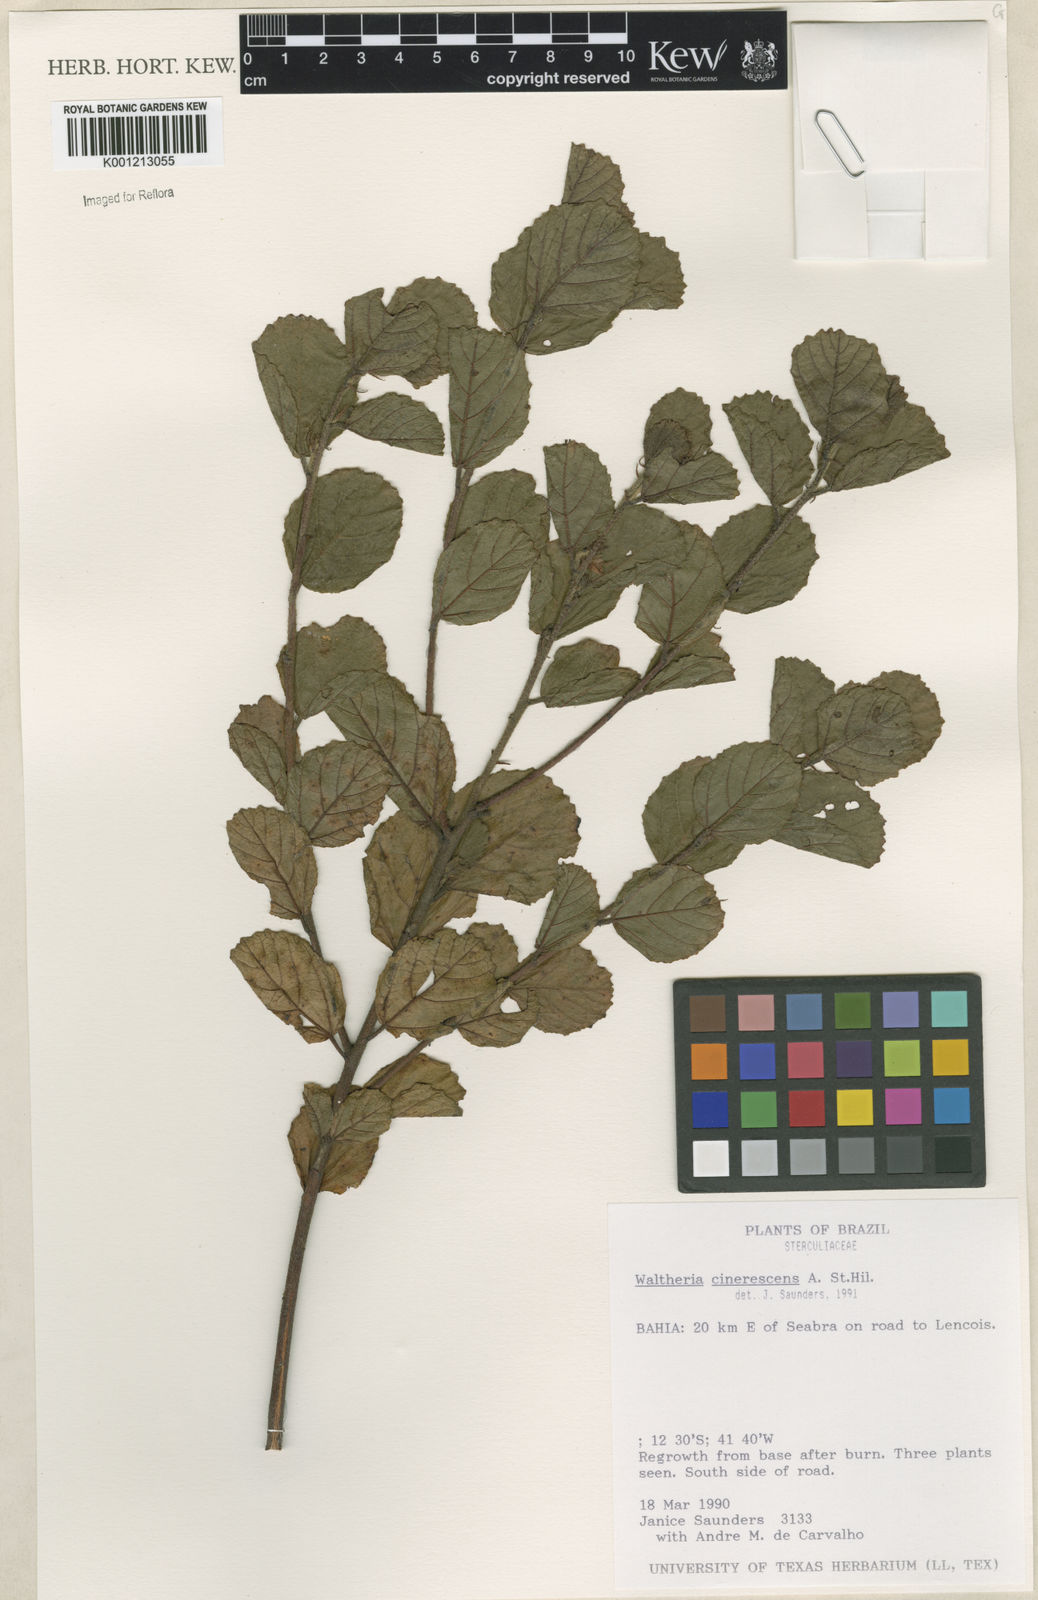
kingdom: Plantae
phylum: Tracheophyta
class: Magnoliopsida
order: Malvales
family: Malvaceae
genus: Waltheria
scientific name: Waltheria cinerescens
